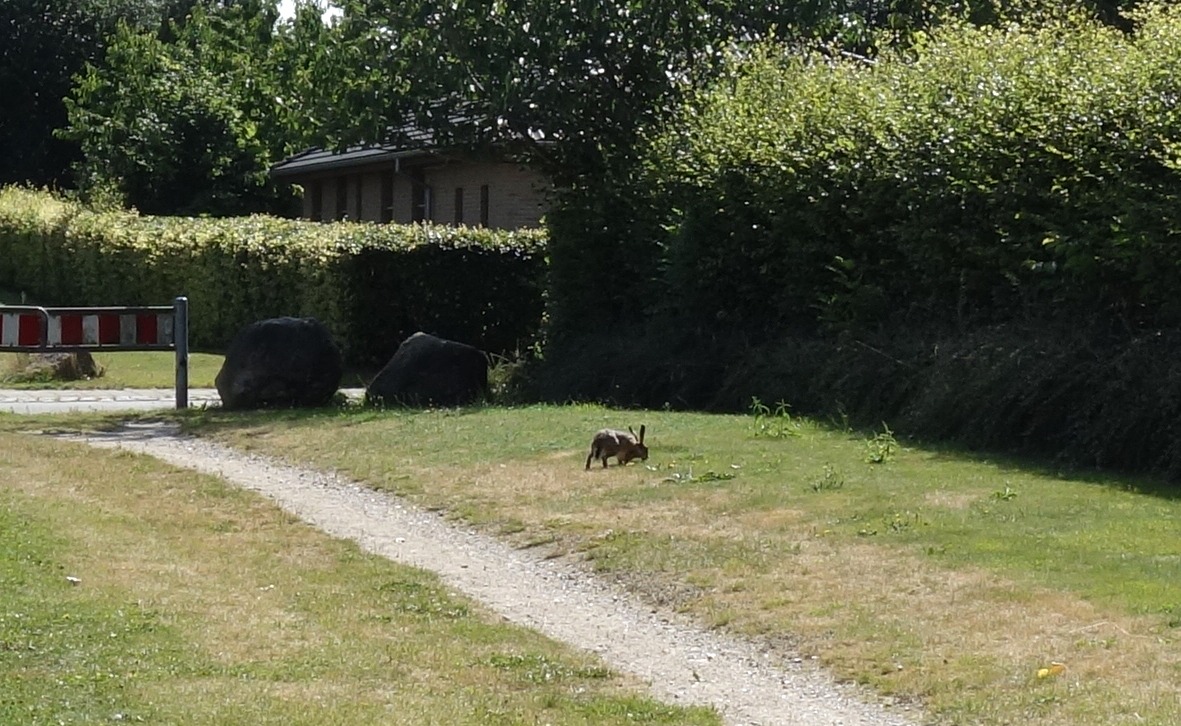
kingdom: Animalia
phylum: Chordata
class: Mammalia
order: Lagomorpha
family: Leporidae
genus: Lepus
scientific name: Lepus europaeus
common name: Hare
